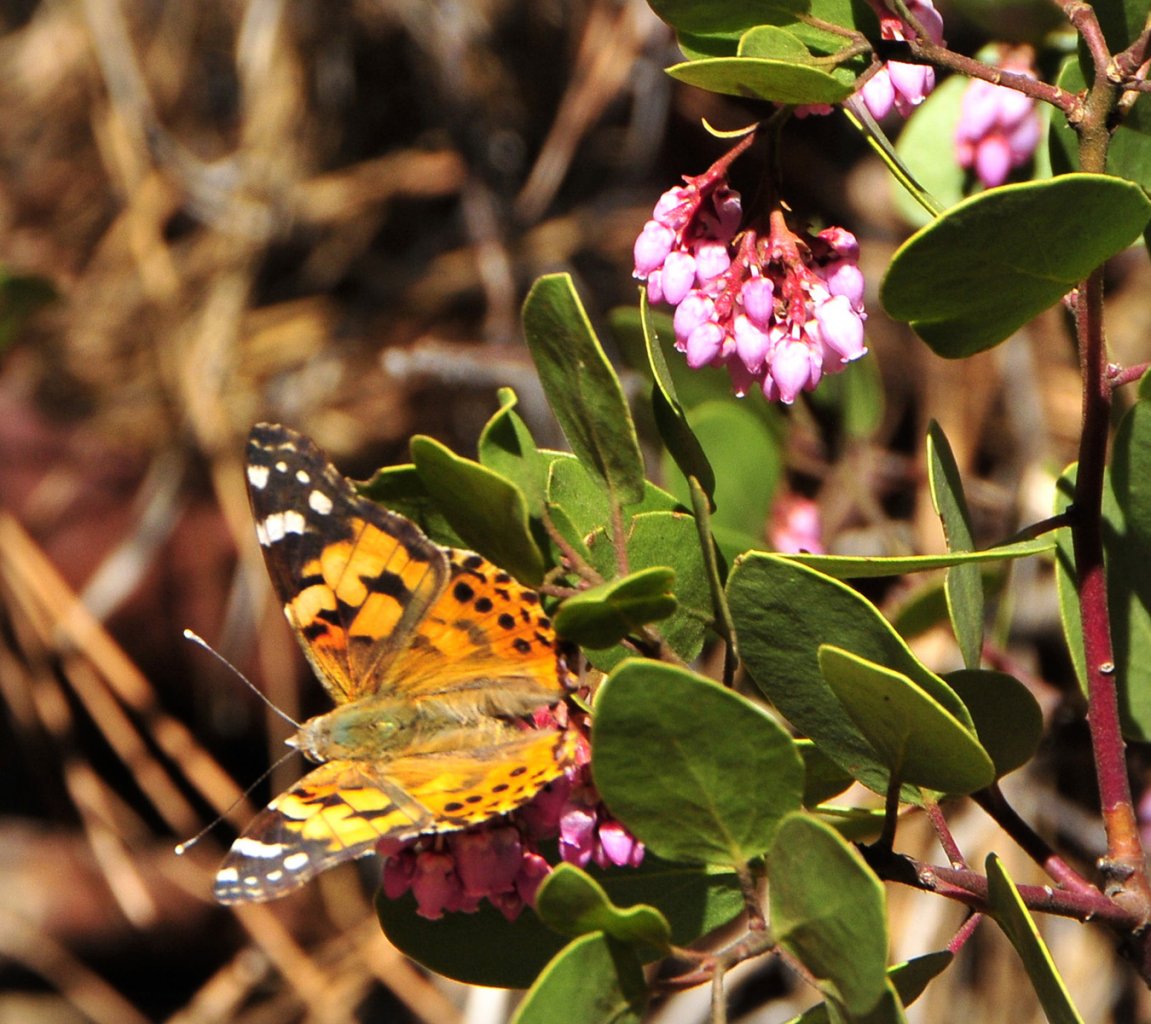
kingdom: Animalia
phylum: Arthropoda
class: Insecta
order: Lepidoptera
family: Nymphalidae
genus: Vanessa
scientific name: Vanessa cardui
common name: Painted Lady
